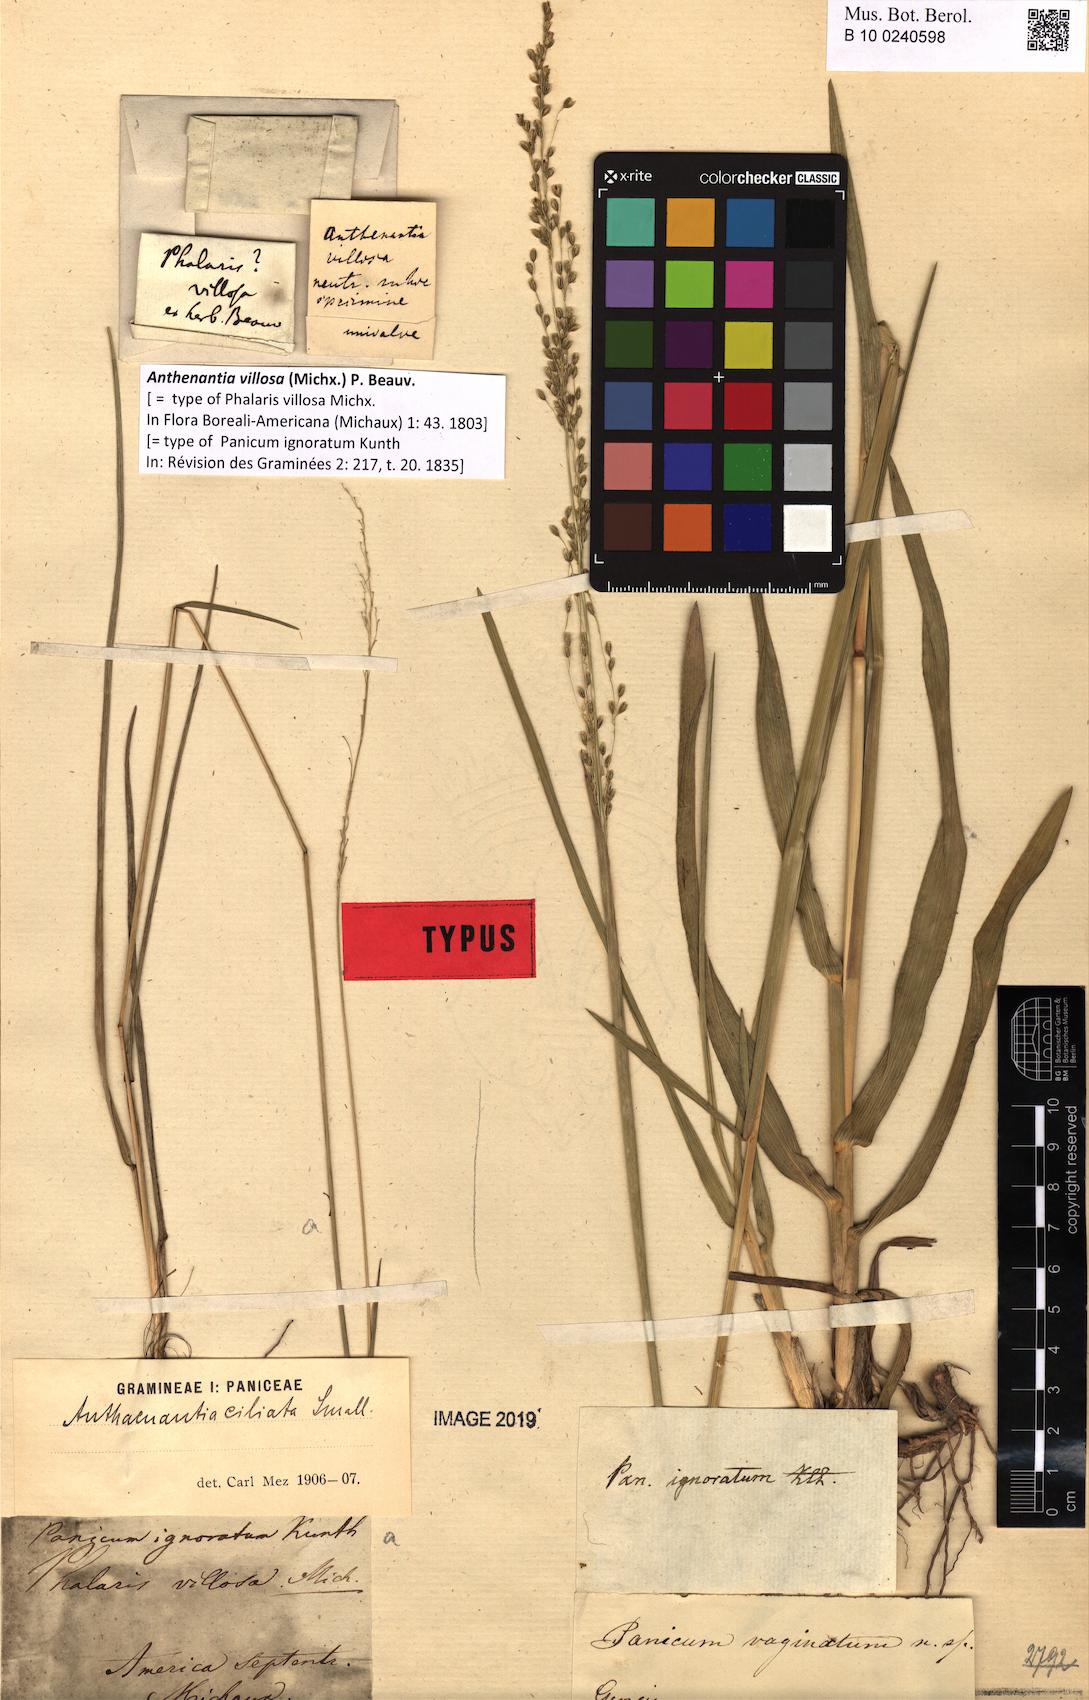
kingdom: Plantae
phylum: Tracheophyta
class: Liliopsida
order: Poales
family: Poaceae
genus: Anthenantia
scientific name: Anthenantia villosa
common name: Green silkyscale
